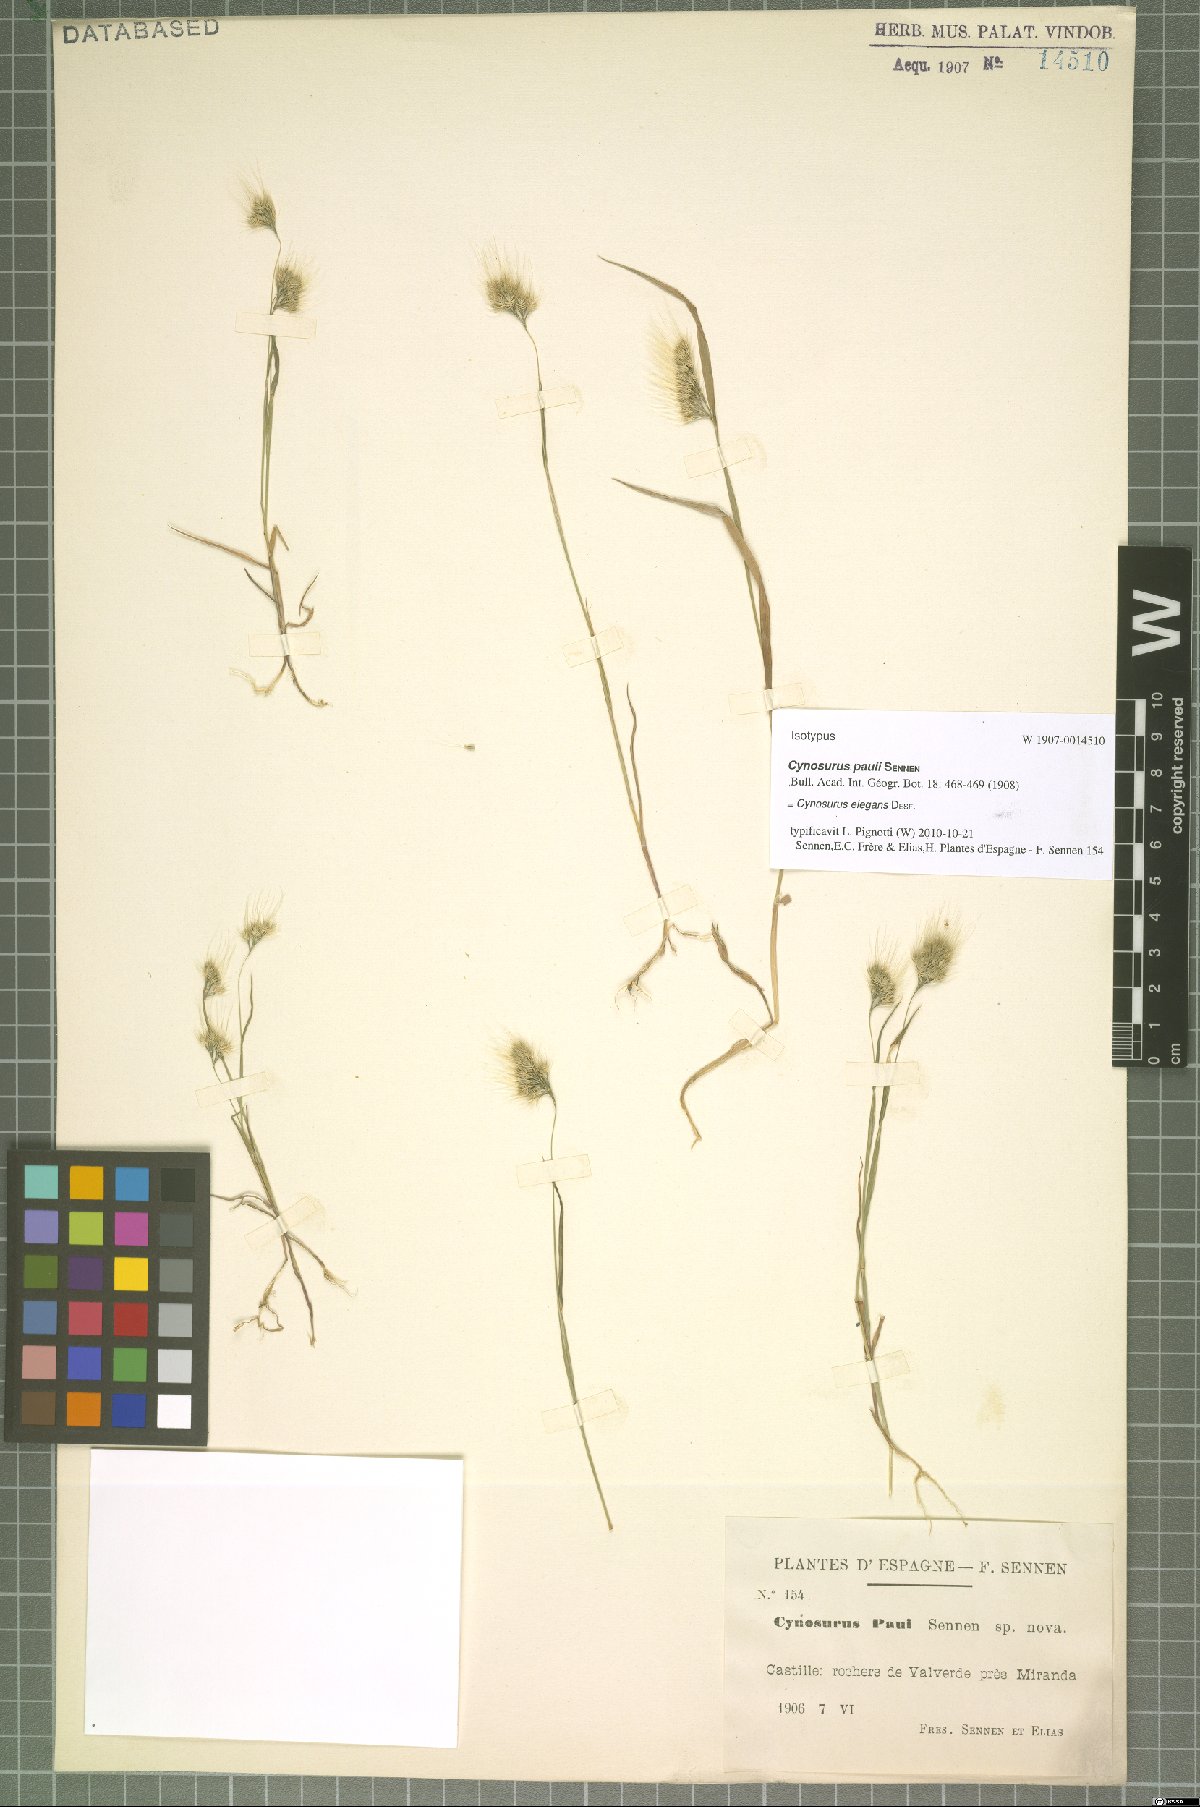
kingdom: Plantae
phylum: Tracheophyta
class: Liliopsida
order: Poales
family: Poaceae
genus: Cynosurus
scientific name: Cynosurus elegans
